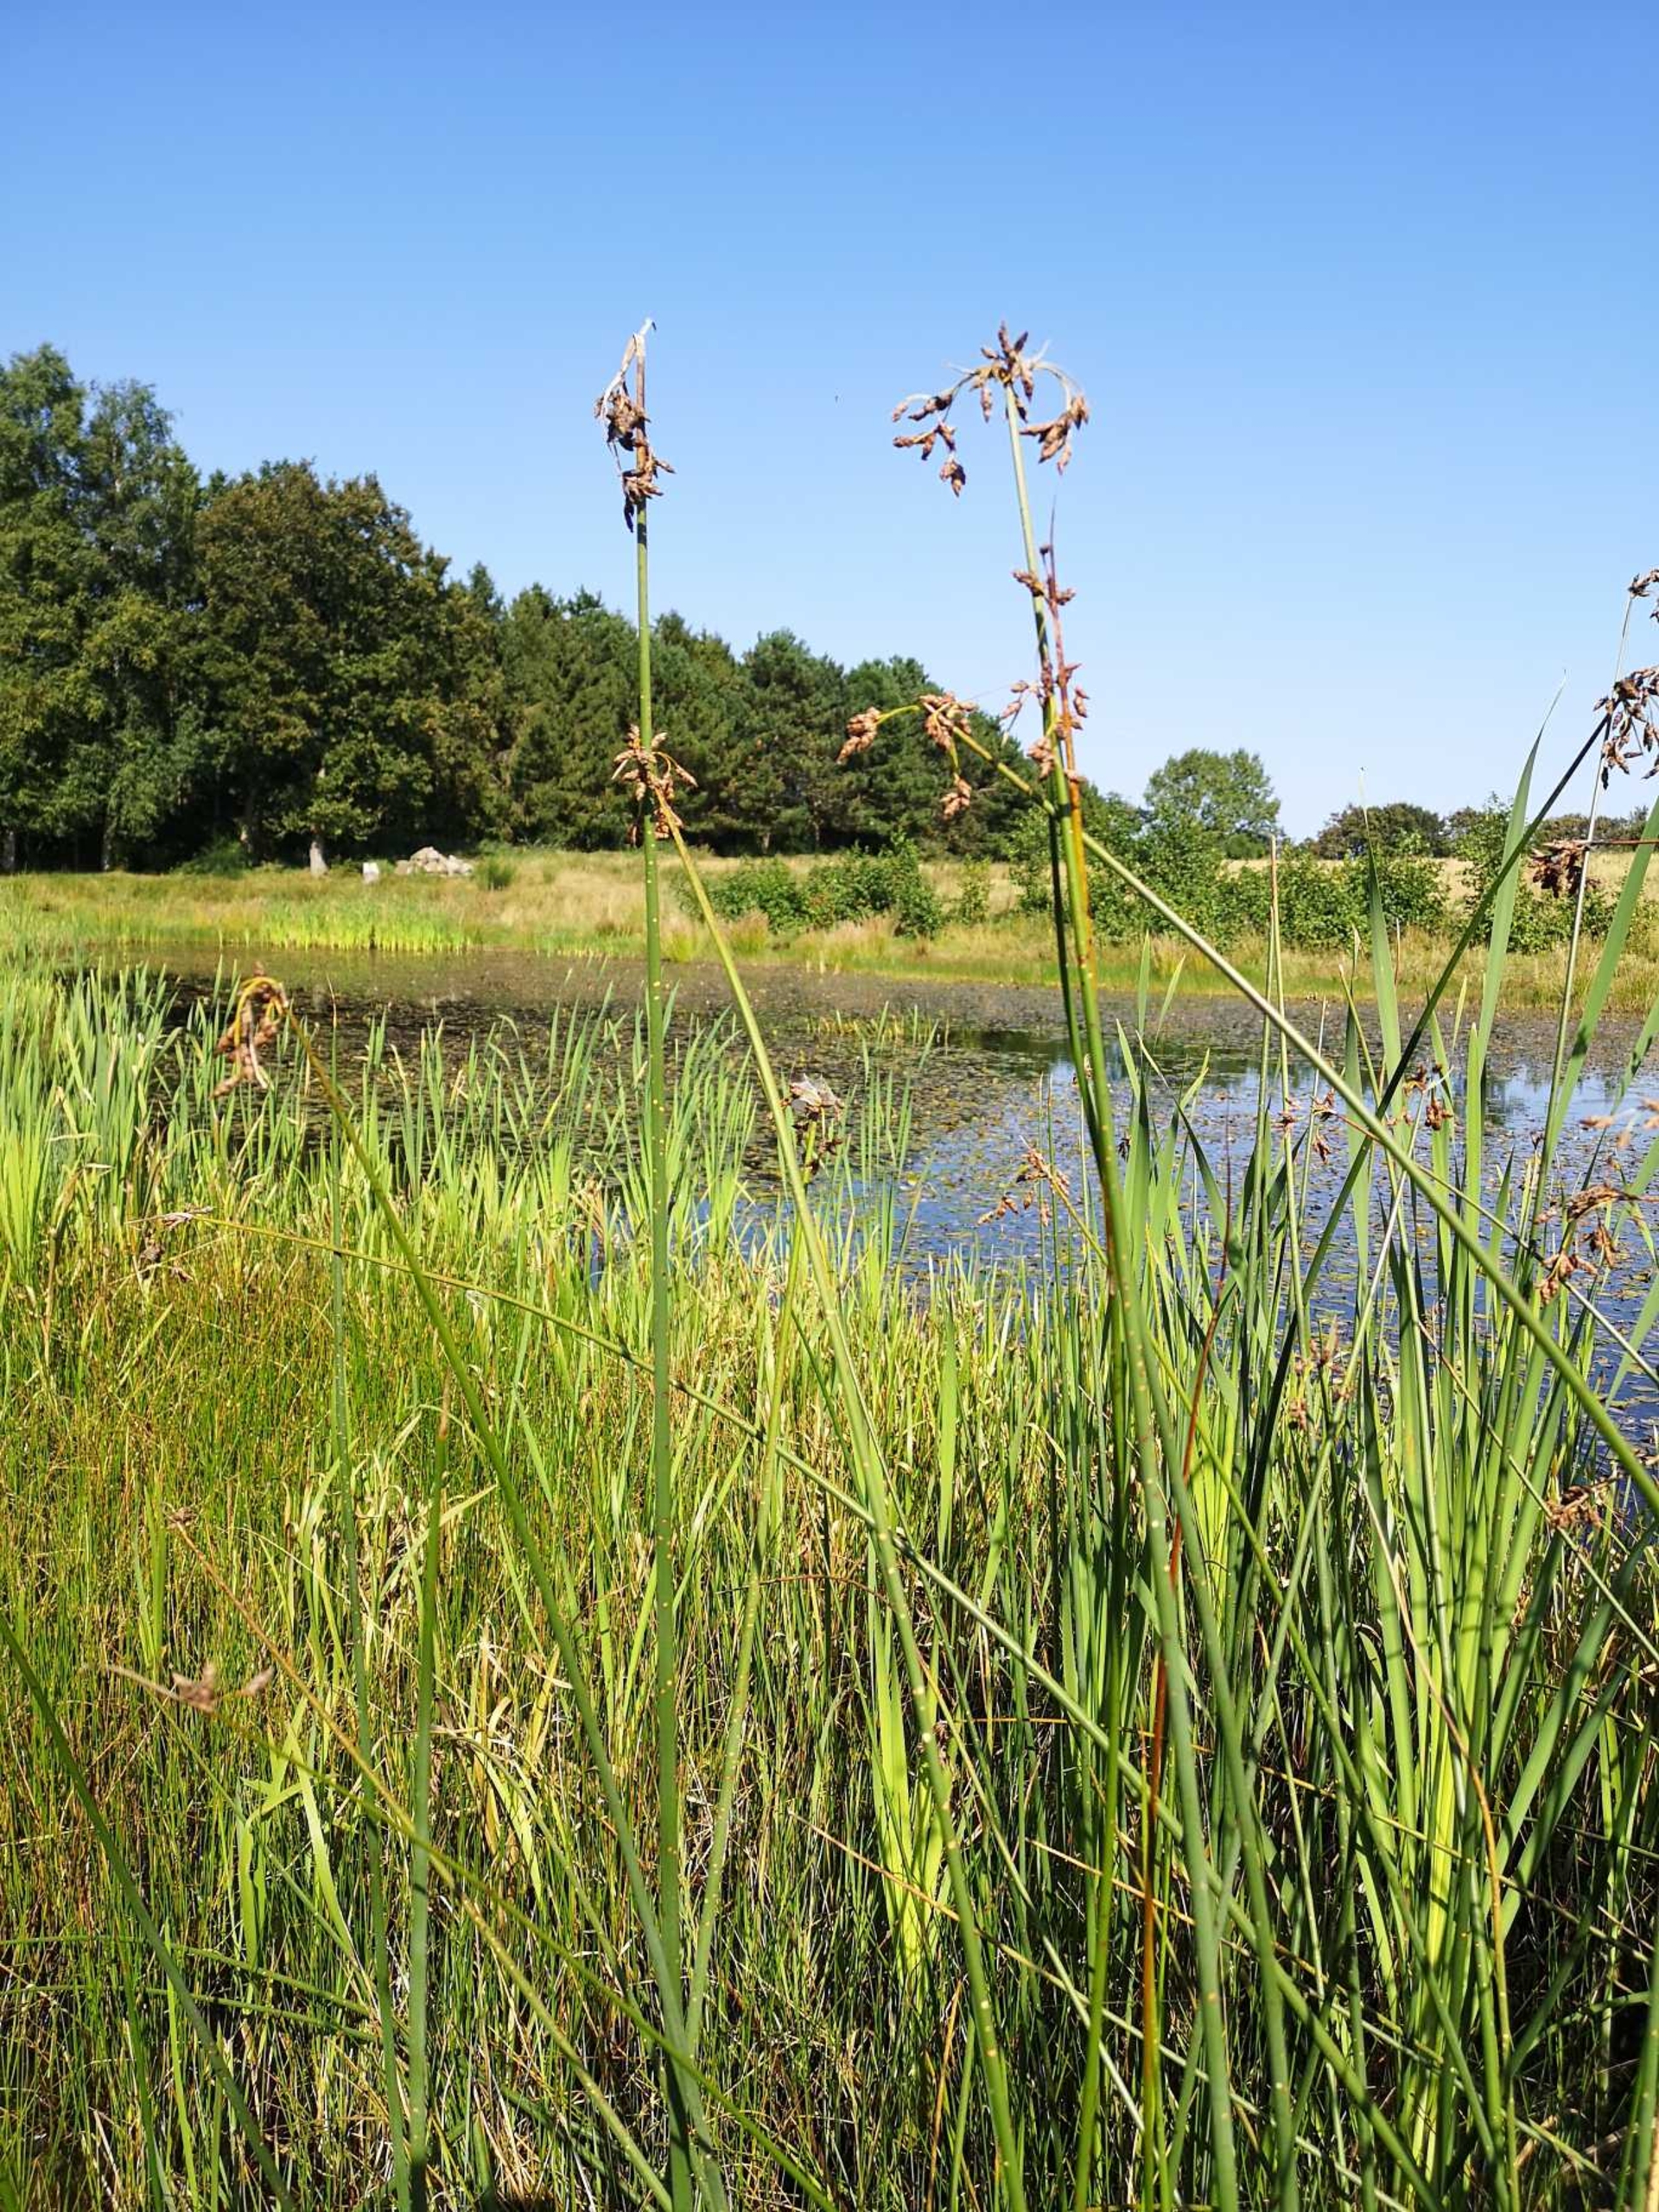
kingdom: Plantae
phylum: Tracheophyta
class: Liliopsida
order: Poales
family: Cyperaceae
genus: Schoenoplectus
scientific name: Schoenoplectus lacustris
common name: Sø-kogleaks
